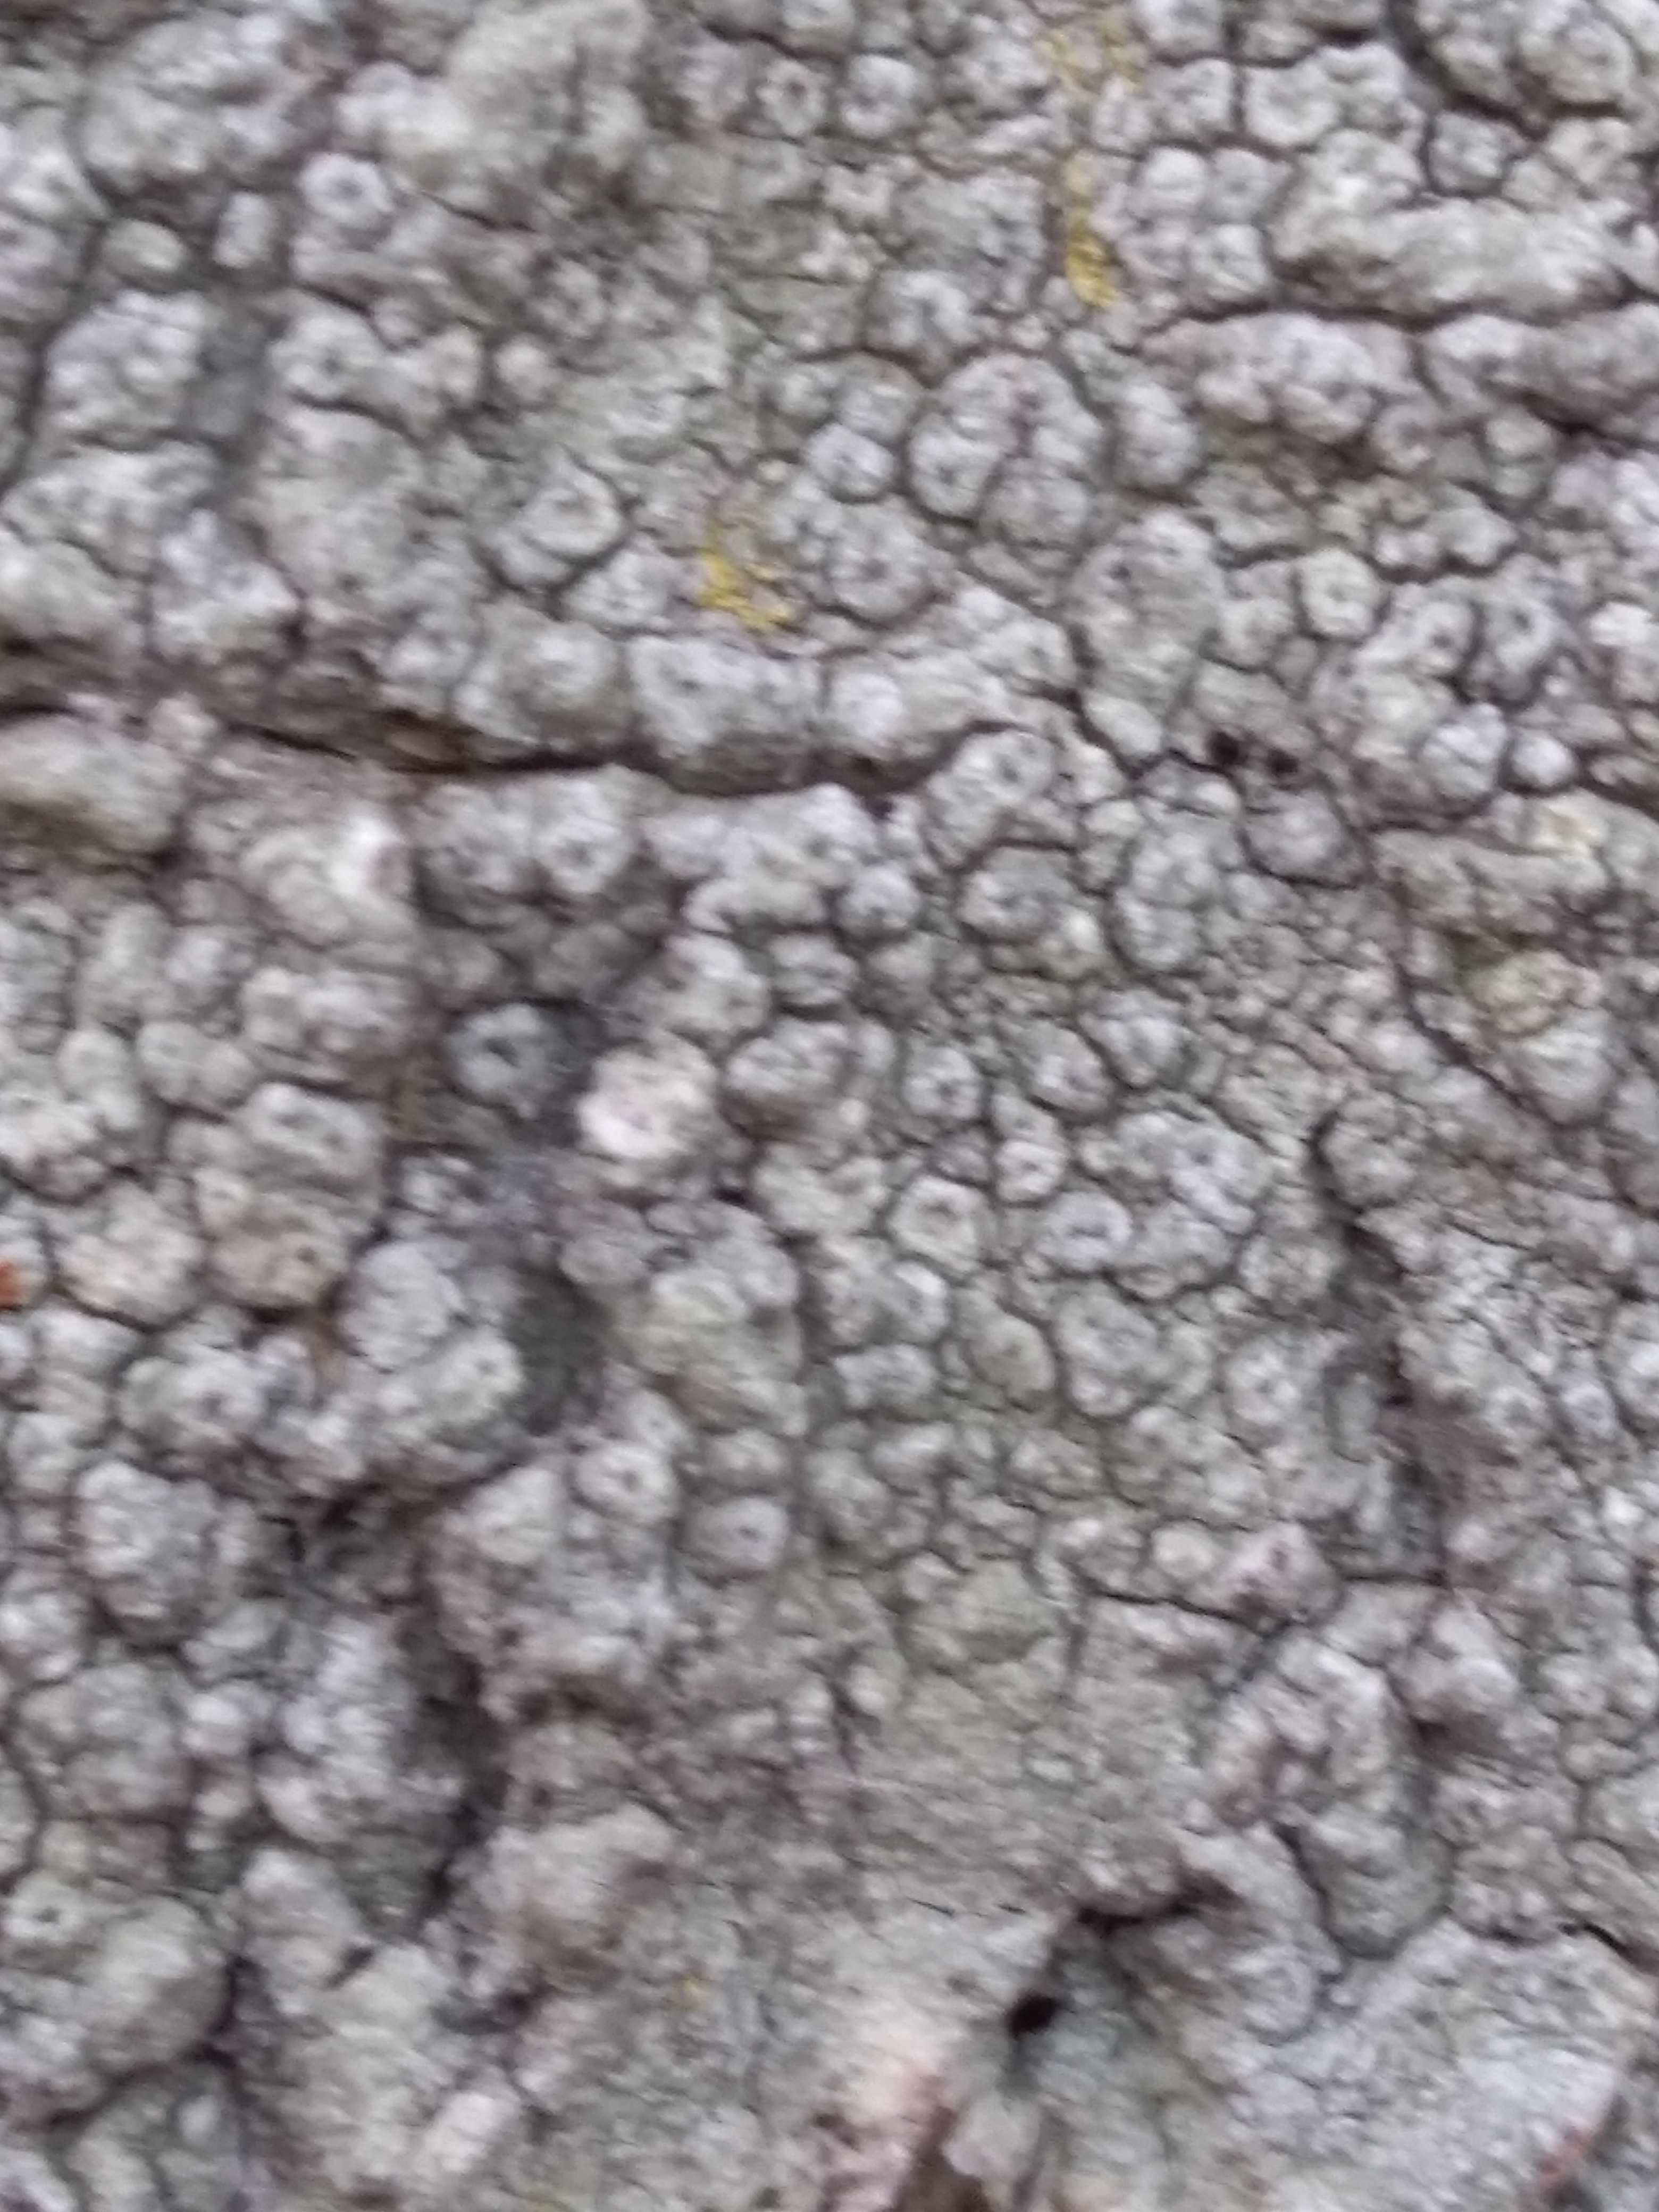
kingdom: Fungi
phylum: Ascomycota
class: Lecanoromycetes
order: Pertusariales
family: Pertusariaceae
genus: Pertusaria
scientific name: Pertusaria hymenea
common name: åben prikvortelav
